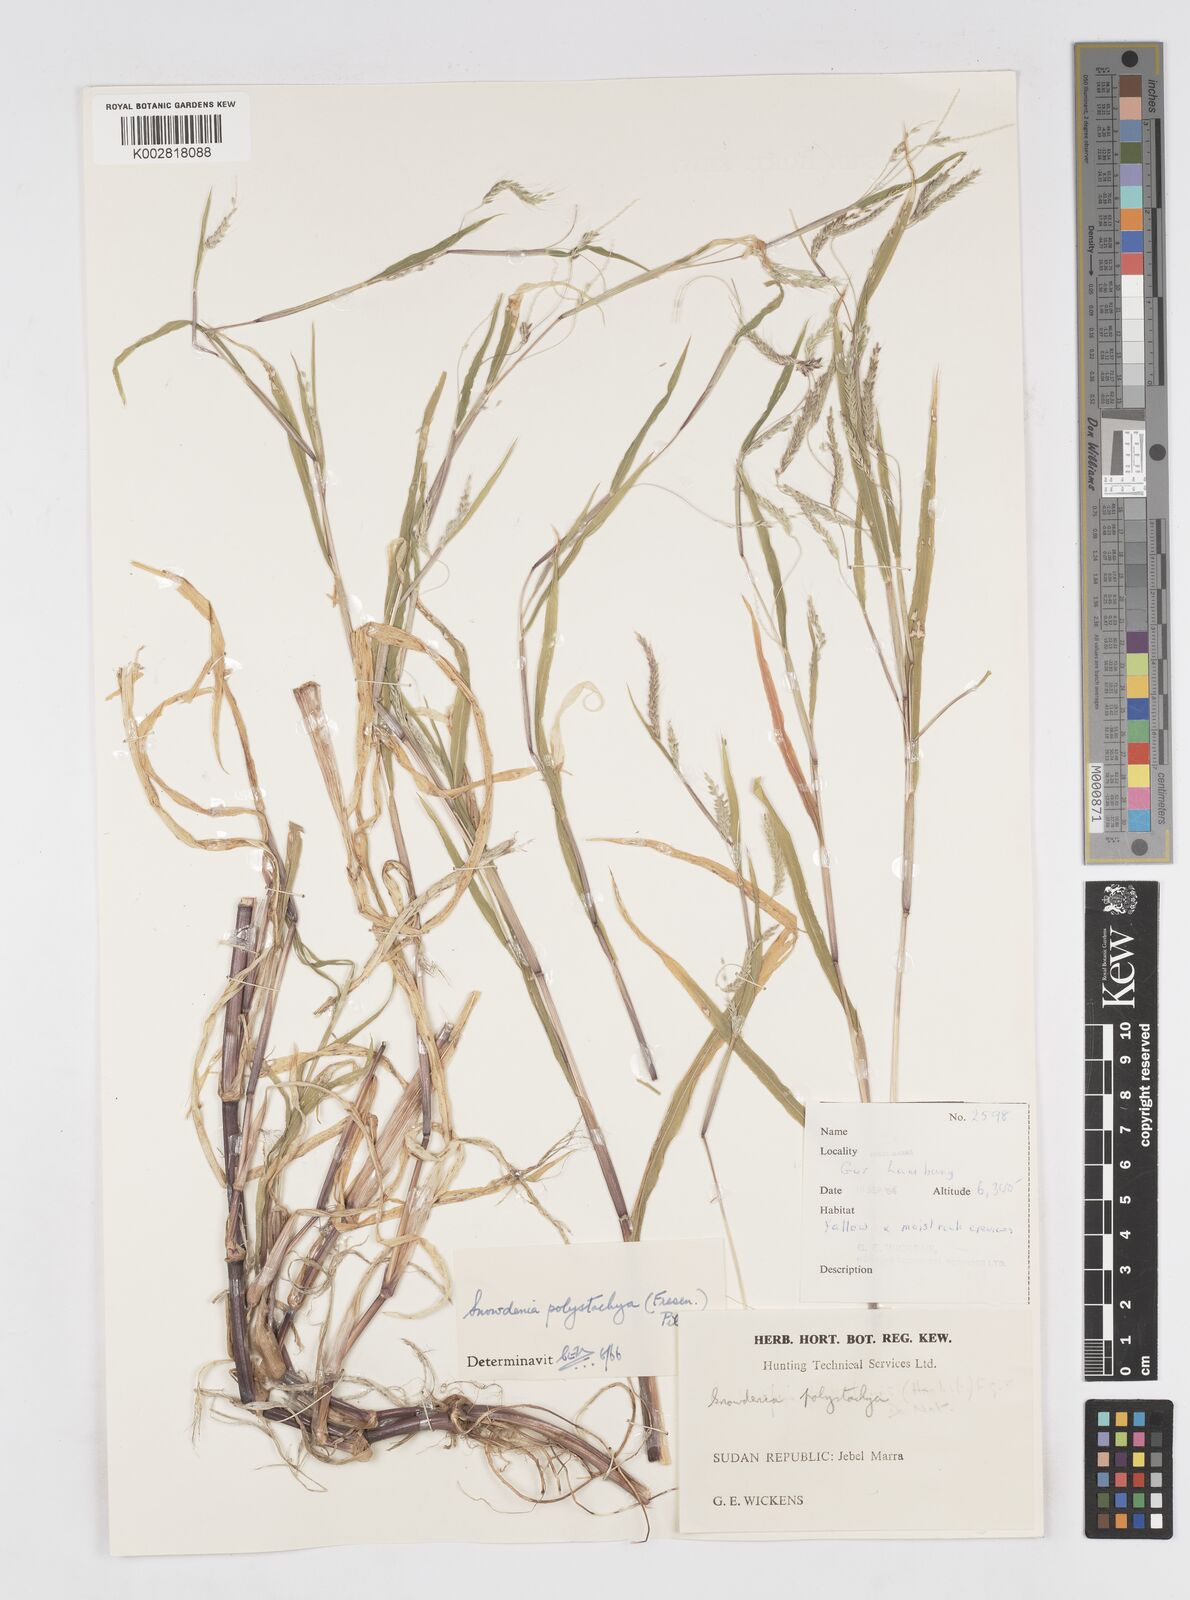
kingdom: Plantae
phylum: Tracheophyta
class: Liliopsida
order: Poales
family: Poaceae
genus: Snowdenia
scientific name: Snowdenia polystachya
